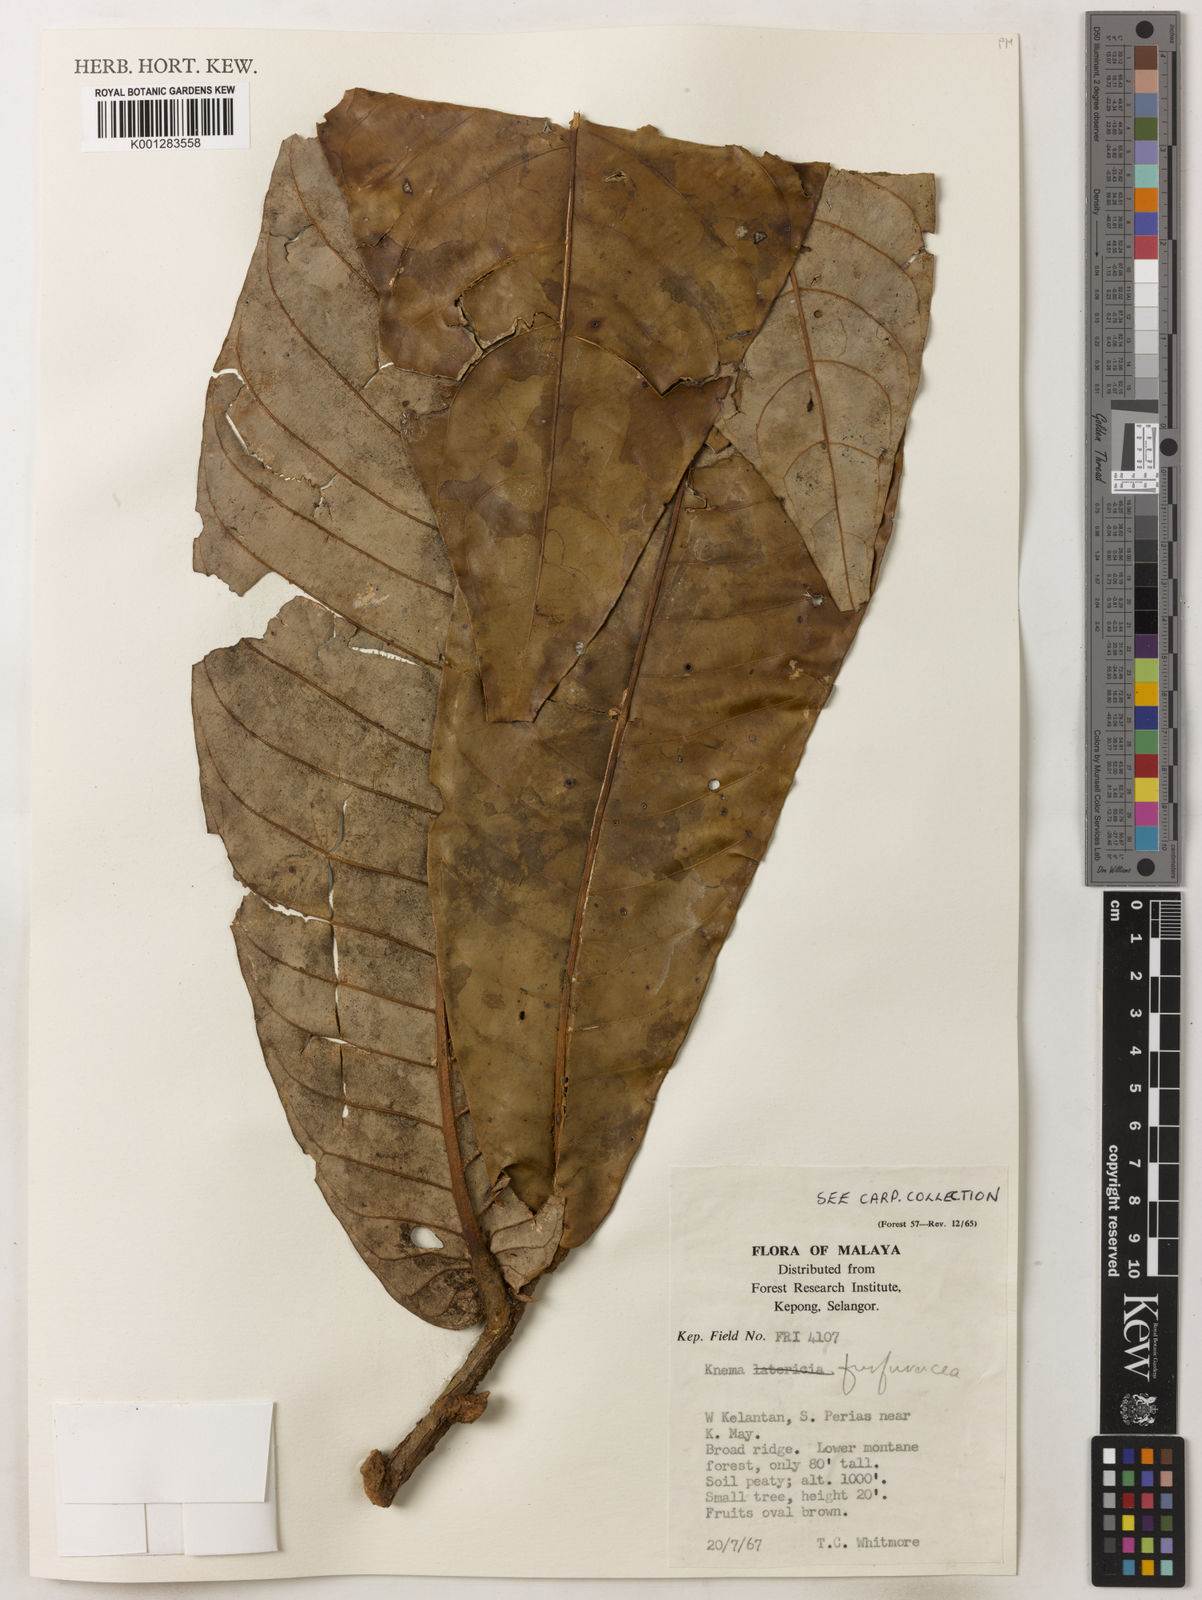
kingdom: Plantae
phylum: Tracheophyta
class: Magnoliopsida
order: Magnoliales
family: Myristicaceae
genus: Knema
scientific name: Knema furfuracea
